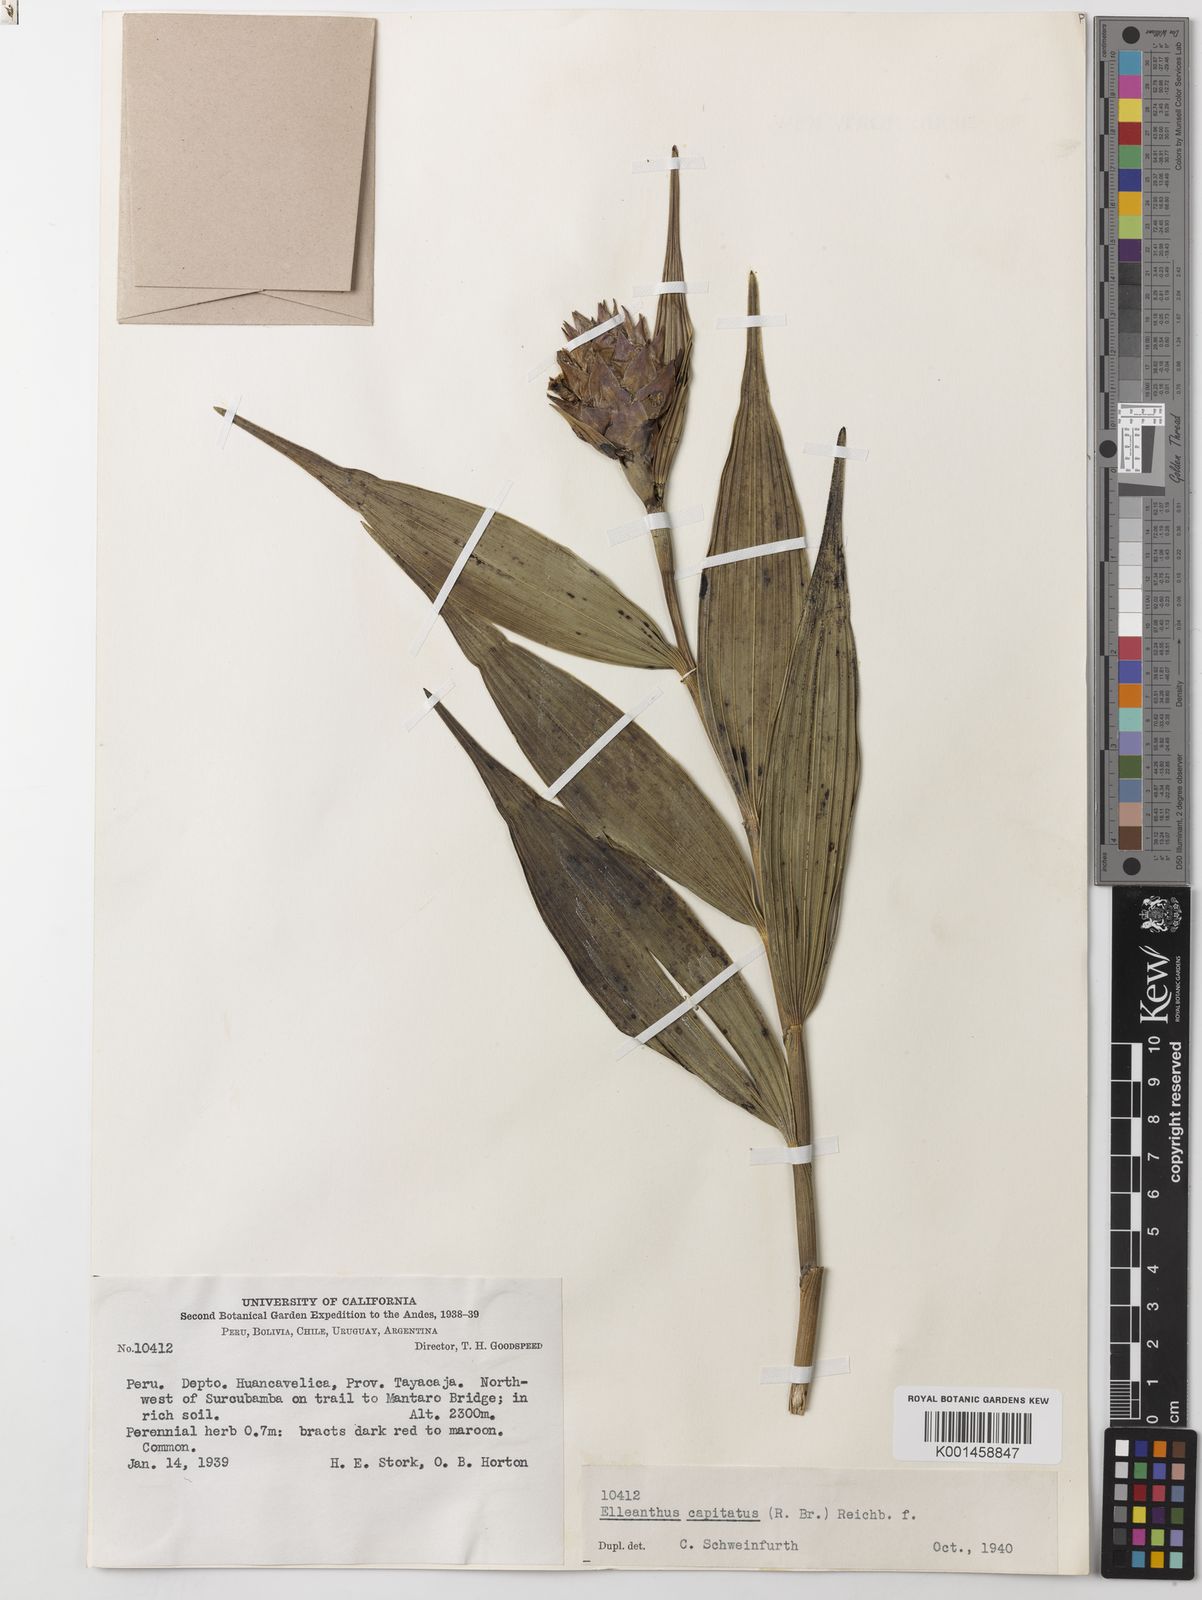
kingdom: Plantae
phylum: Tracheophyta
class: Liliopsida
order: Asparagales
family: Orchidaceae
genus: Elleanthus
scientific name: Elleanthus capitatus
